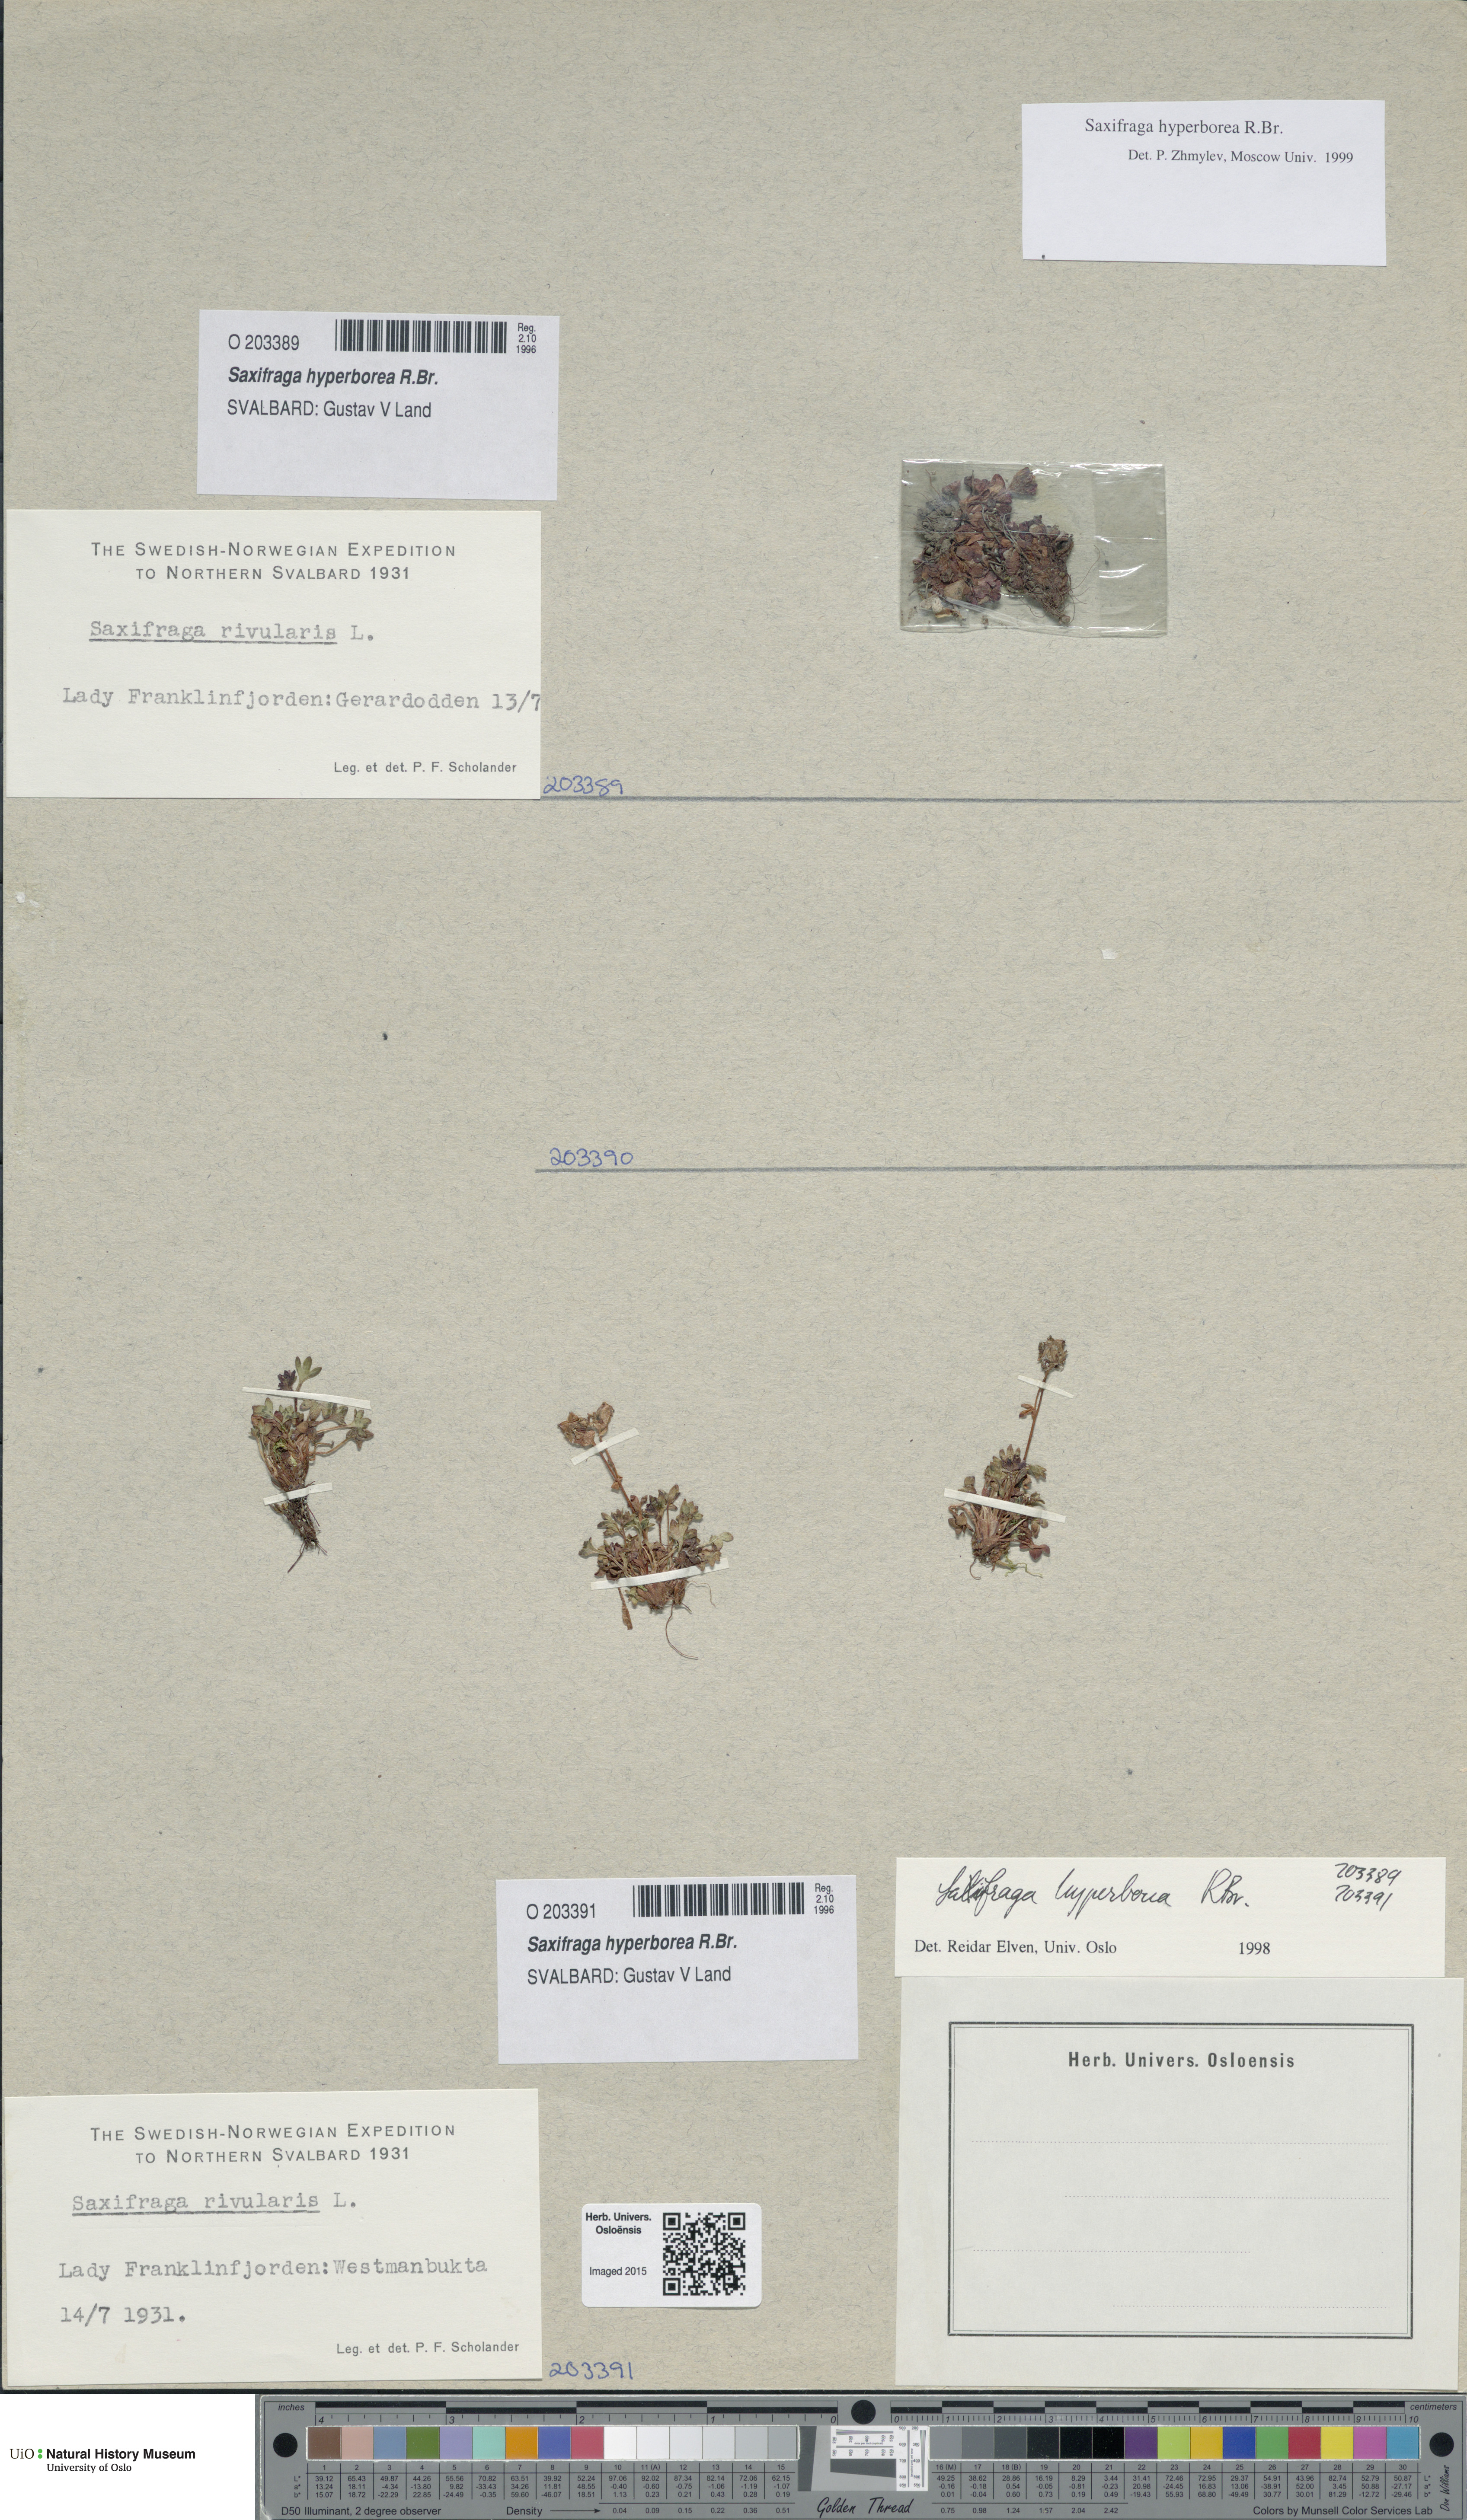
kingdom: Plantae
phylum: Tracheophyta
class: Magnoliopsida
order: Saxifragales
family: Saxifragaceae
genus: Saxifraga
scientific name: Saxifraga hyperborea
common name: Arctic saxifrage
